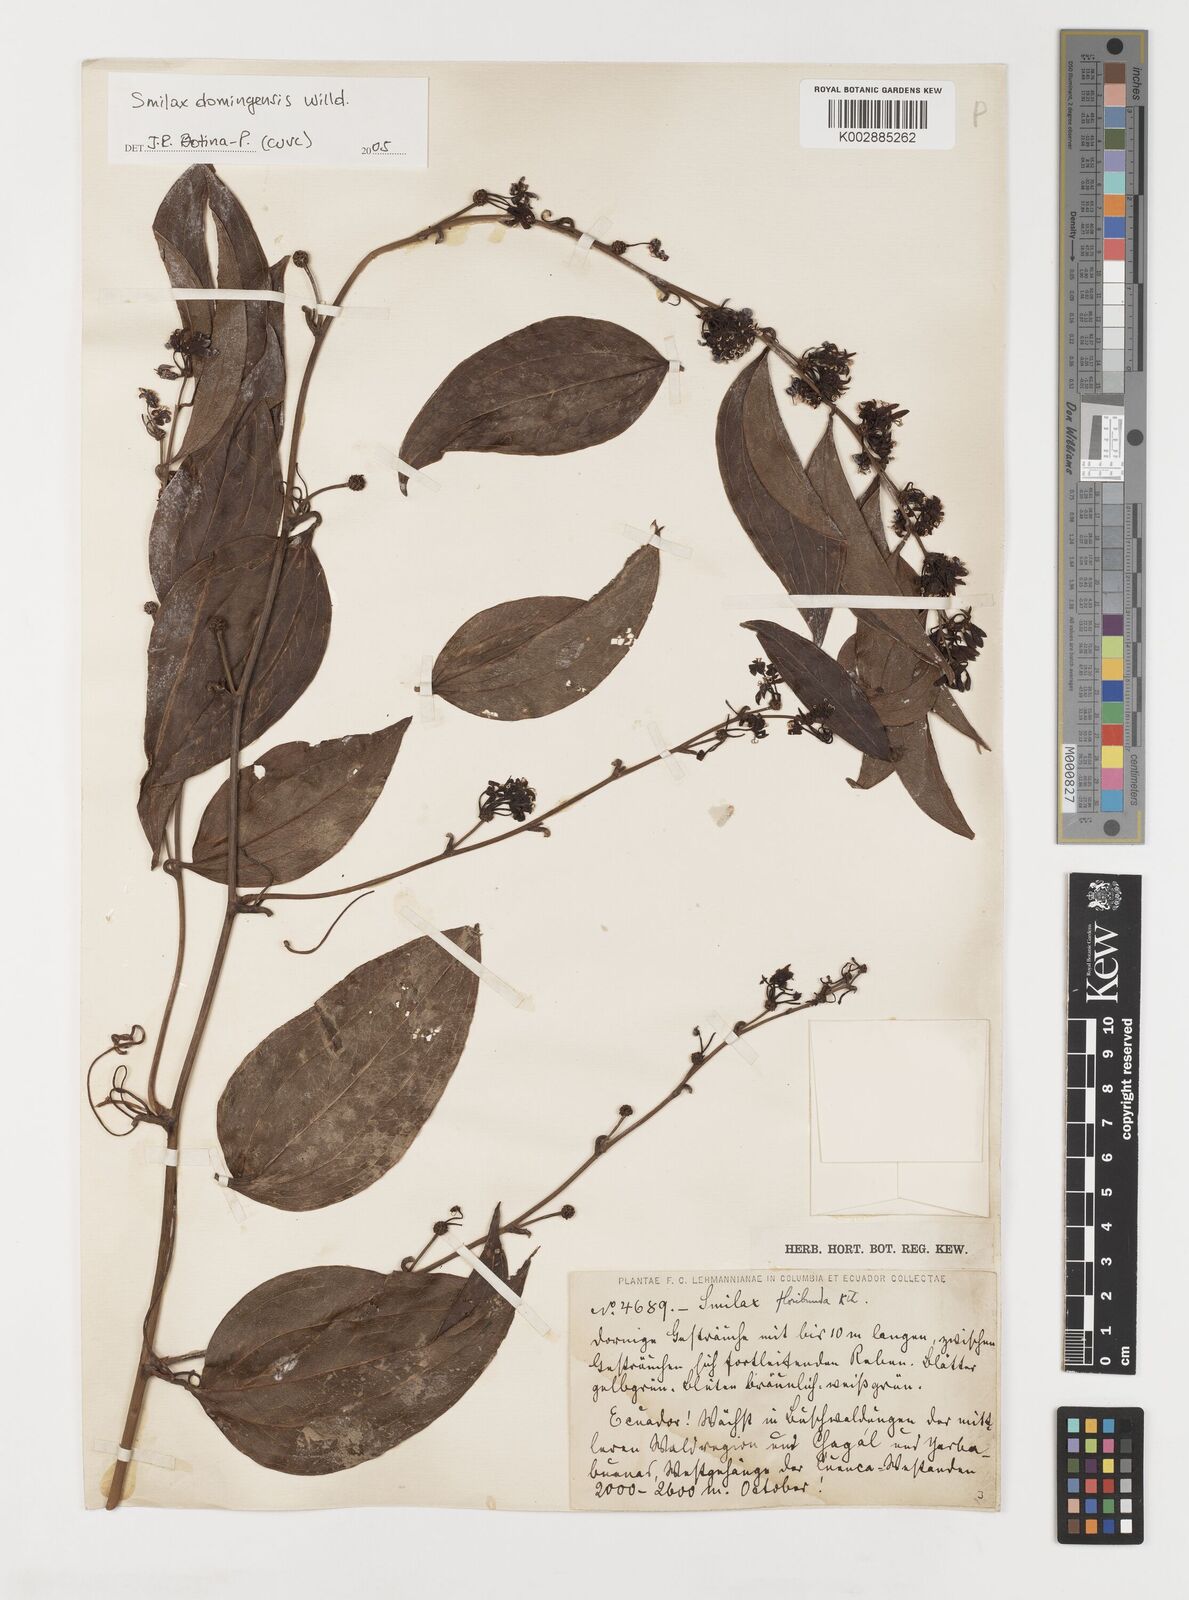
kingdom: Plantae
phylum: Tracheophyta
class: Liliopsida
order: Liliales
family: Smilacaceae
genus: Smilax
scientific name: Smilax domingensis
